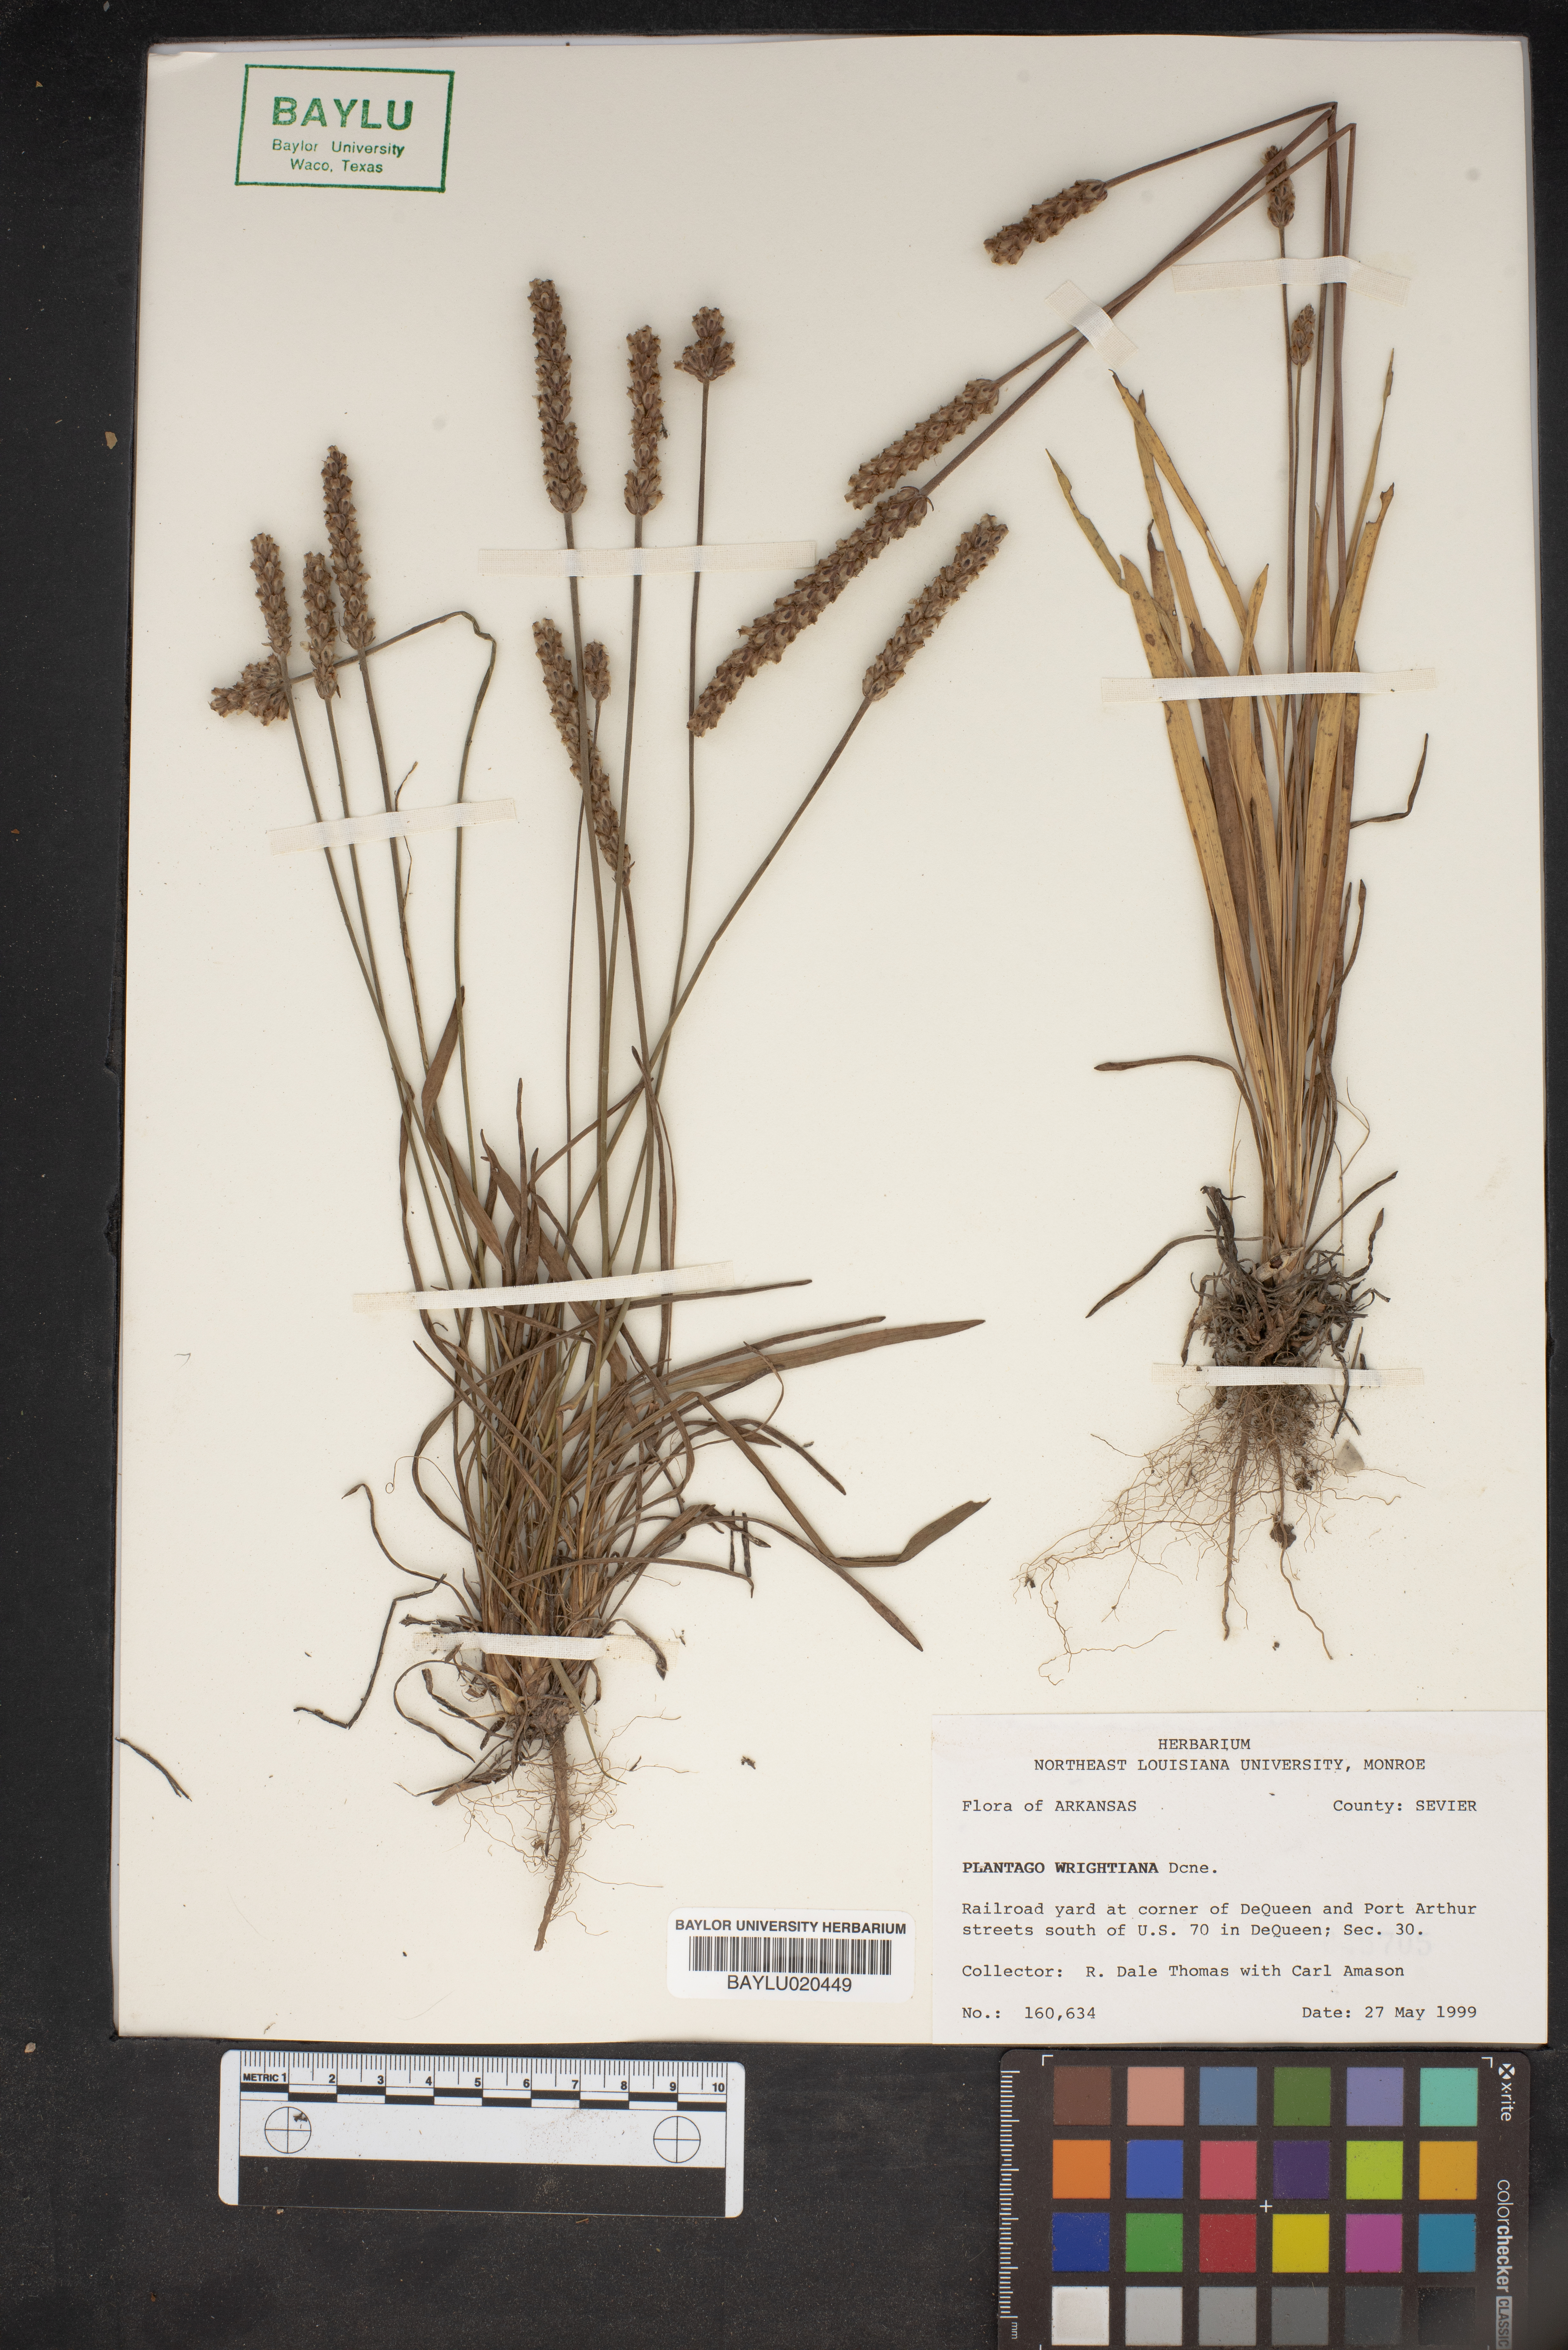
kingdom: Plantae
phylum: Tracheophyta
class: Magnoliopsida
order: Lamiales
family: Plantaginaceae
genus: Plantago
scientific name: Plantago wrightiana
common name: Wright's plantain
